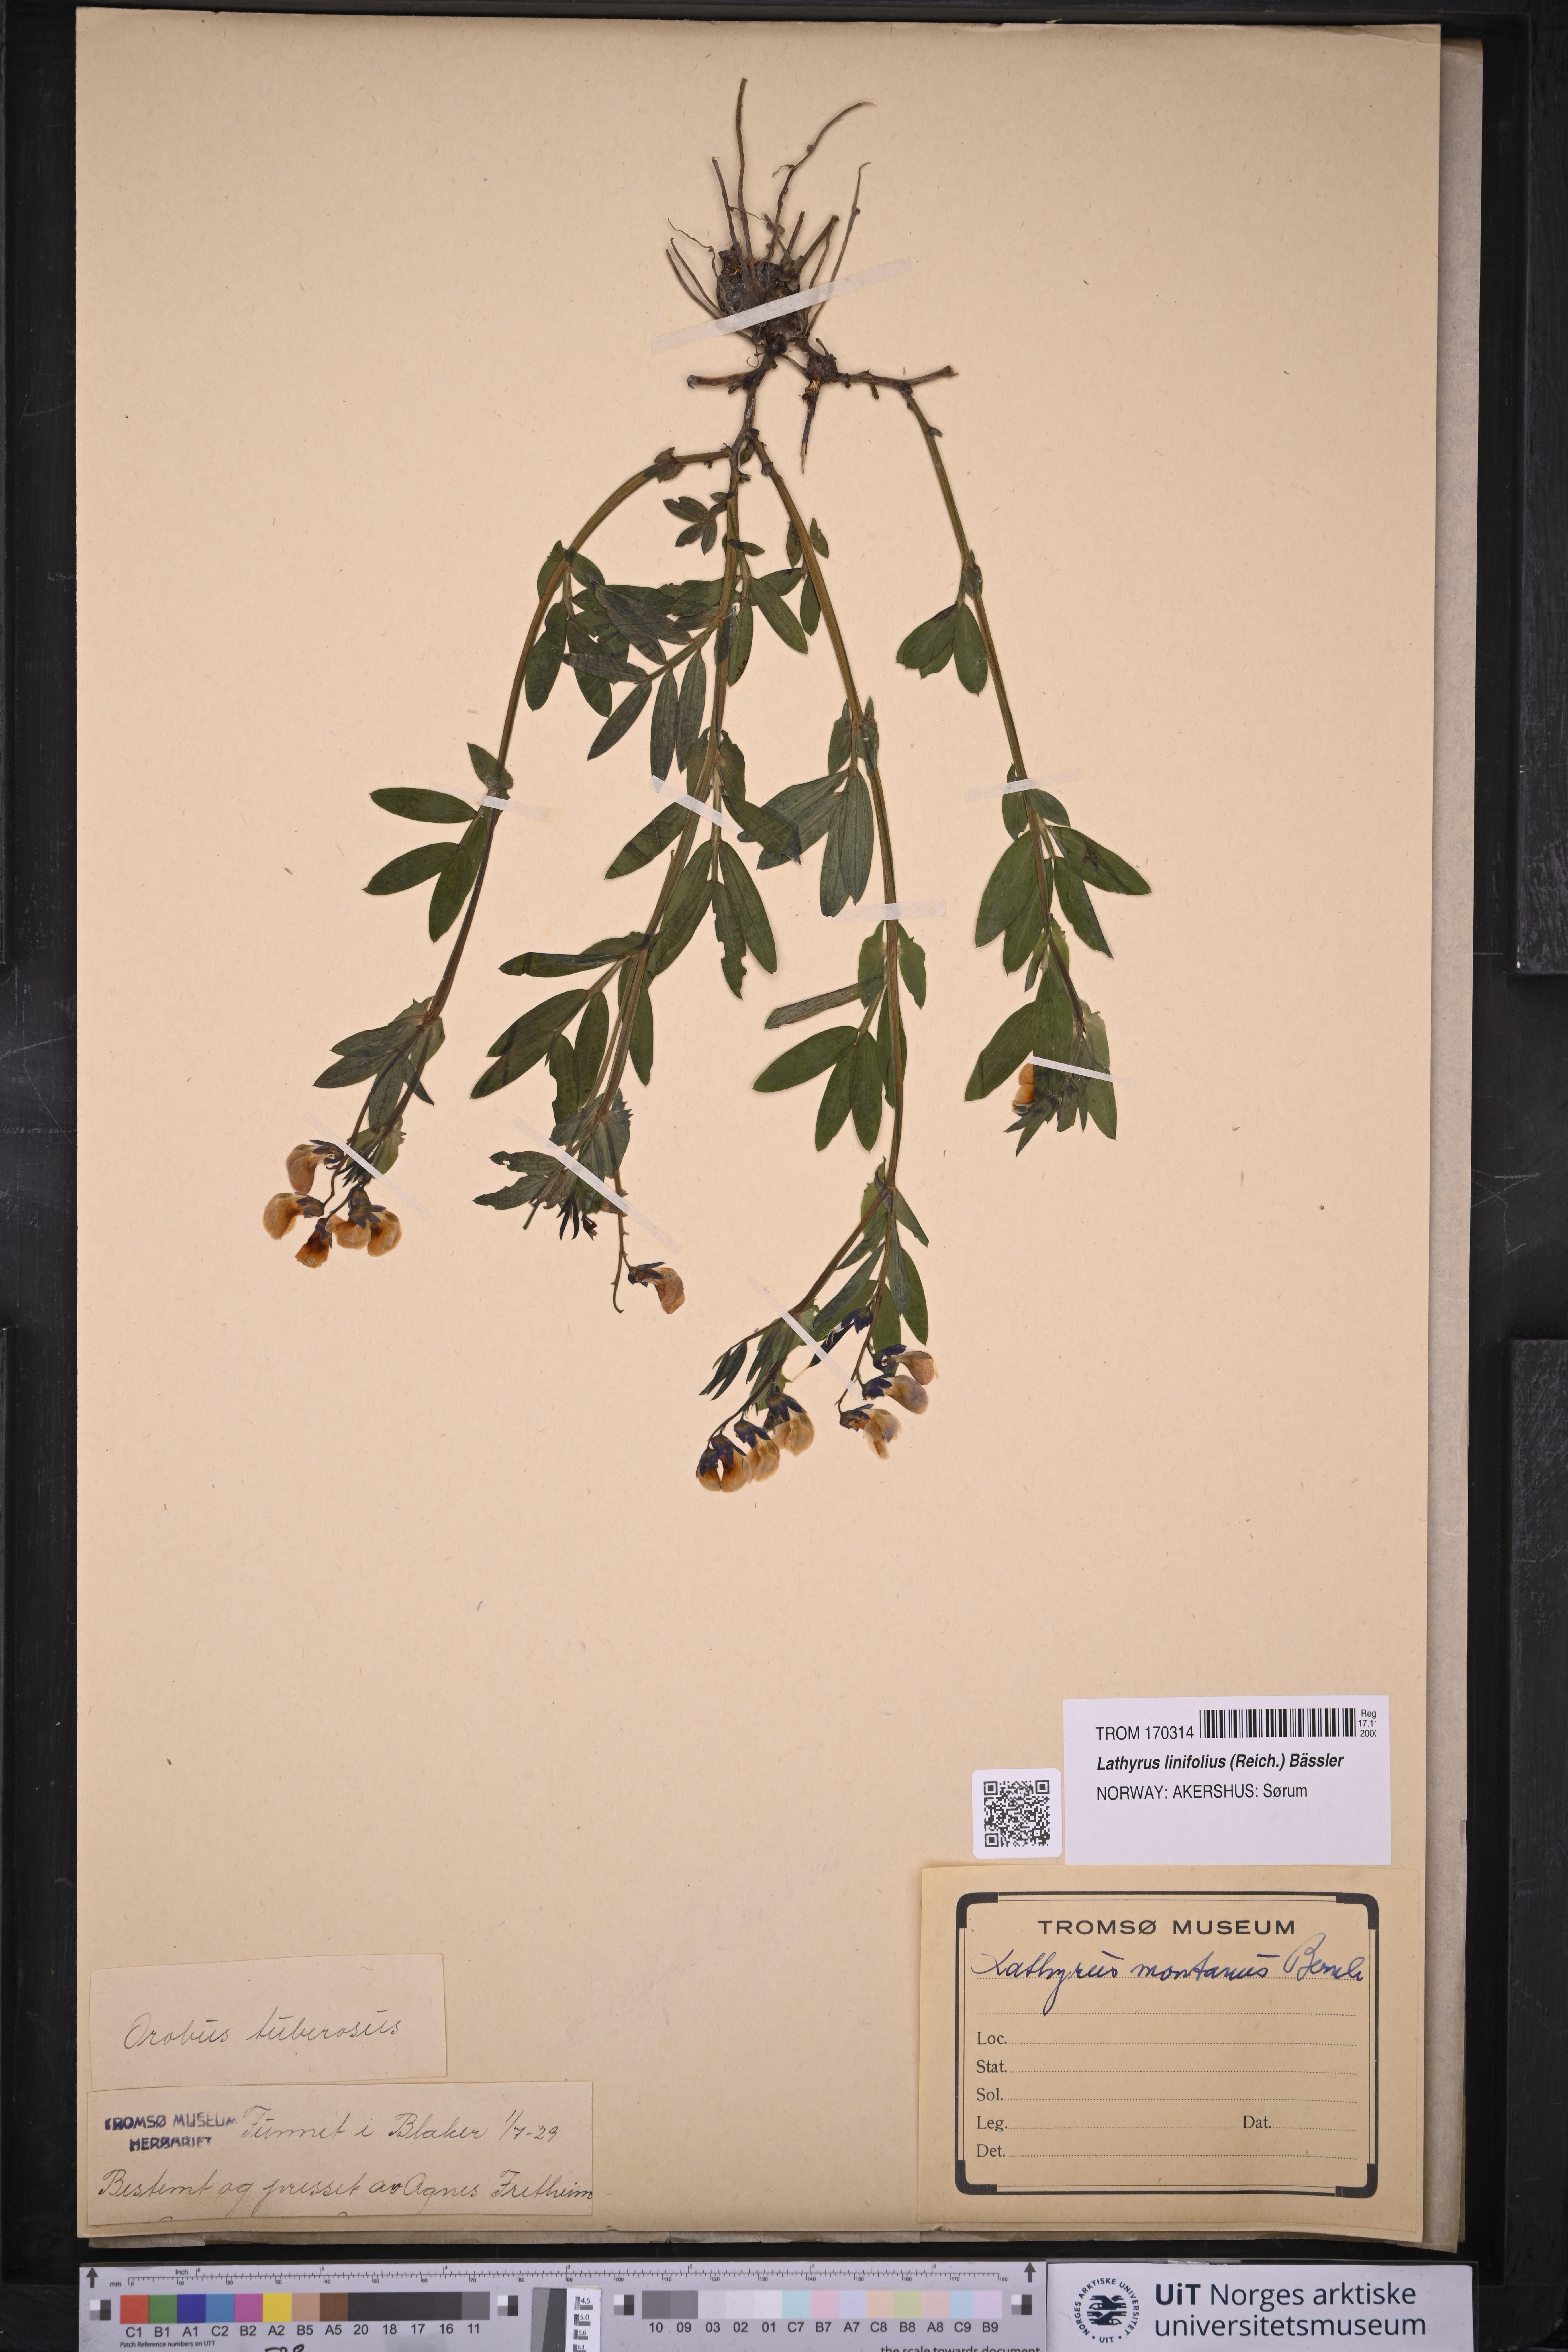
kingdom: Plantae
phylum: Tracheophyta
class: Magnoliopsida
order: Fabales
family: Fabaceae
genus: Lathyrus
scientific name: Lathyrus linifolius
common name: Bitter-vetch
